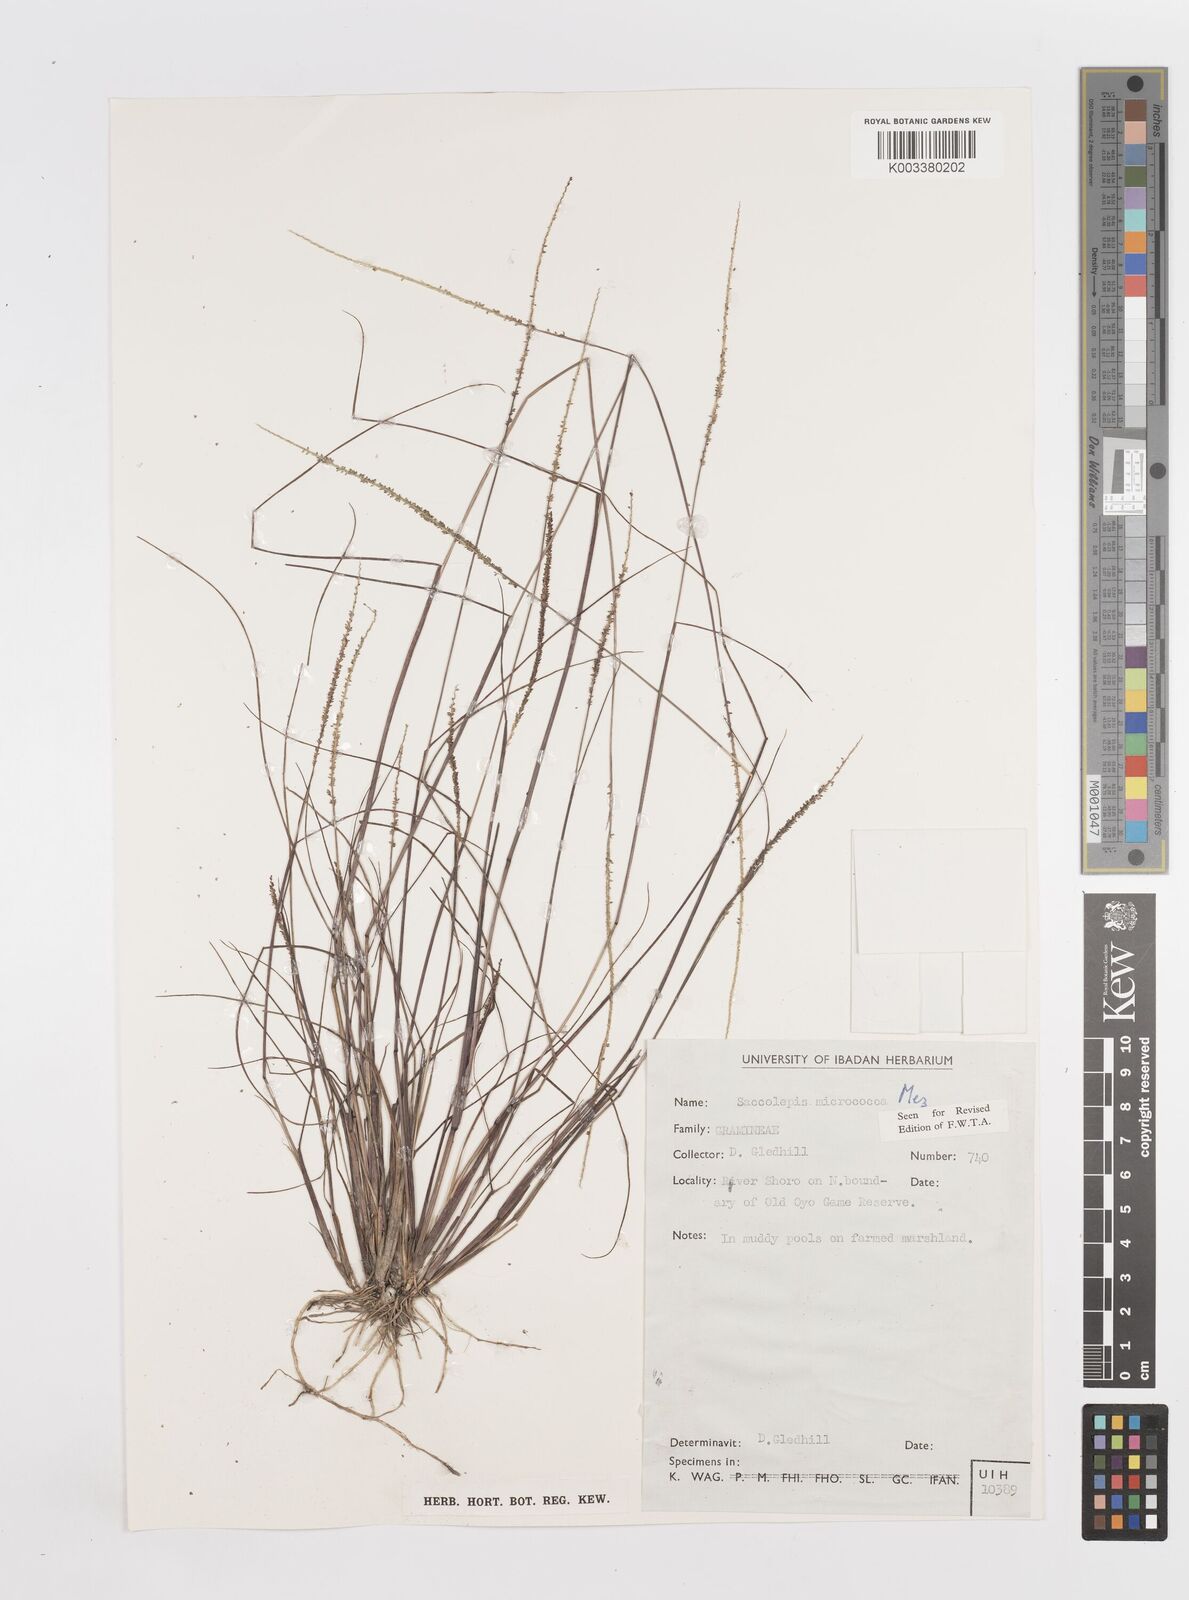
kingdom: Plantae
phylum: Tracheophyta
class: Liliopsida
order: Poales
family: Poaceae
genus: Sacciolepis
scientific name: Sacciolepis micrococca
